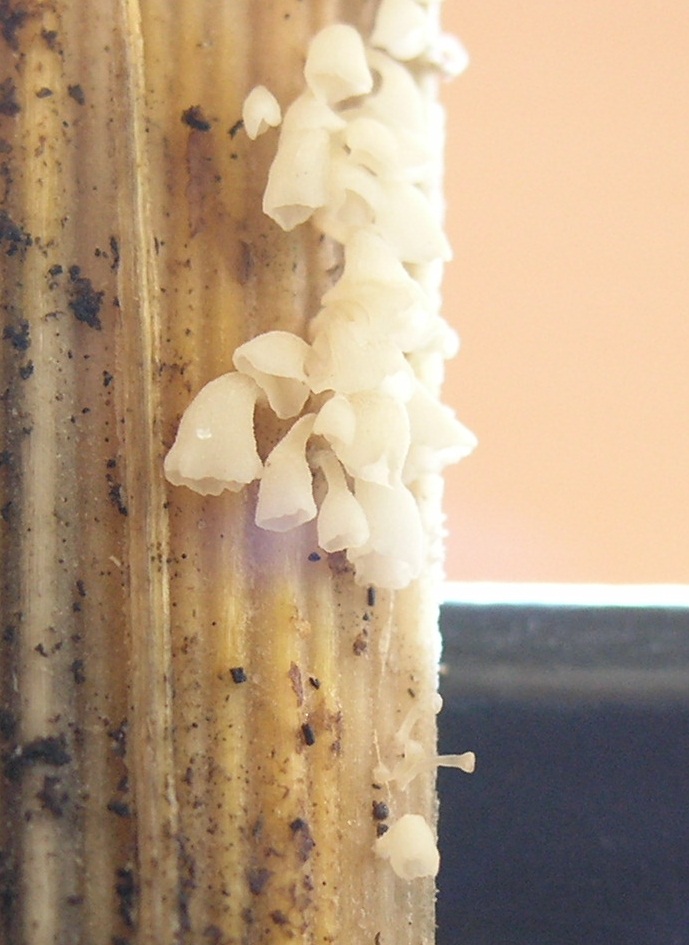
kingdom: Fungi
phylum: Basidiomycota
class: Agaricomycetes
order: Agaricales
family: Marasmiaceae
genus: Calyptella
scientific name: Calyptella capula
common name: hvidlig nældehue
